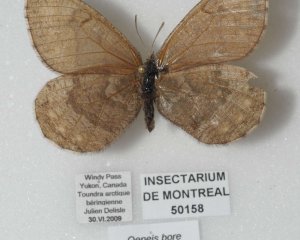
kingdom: Animalia
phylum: Arthropoda
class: Insecta
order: Lepidoptera
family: Nymphalidae
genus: Oeneis
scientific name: Oeneis bore
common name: White-veined Arctic
